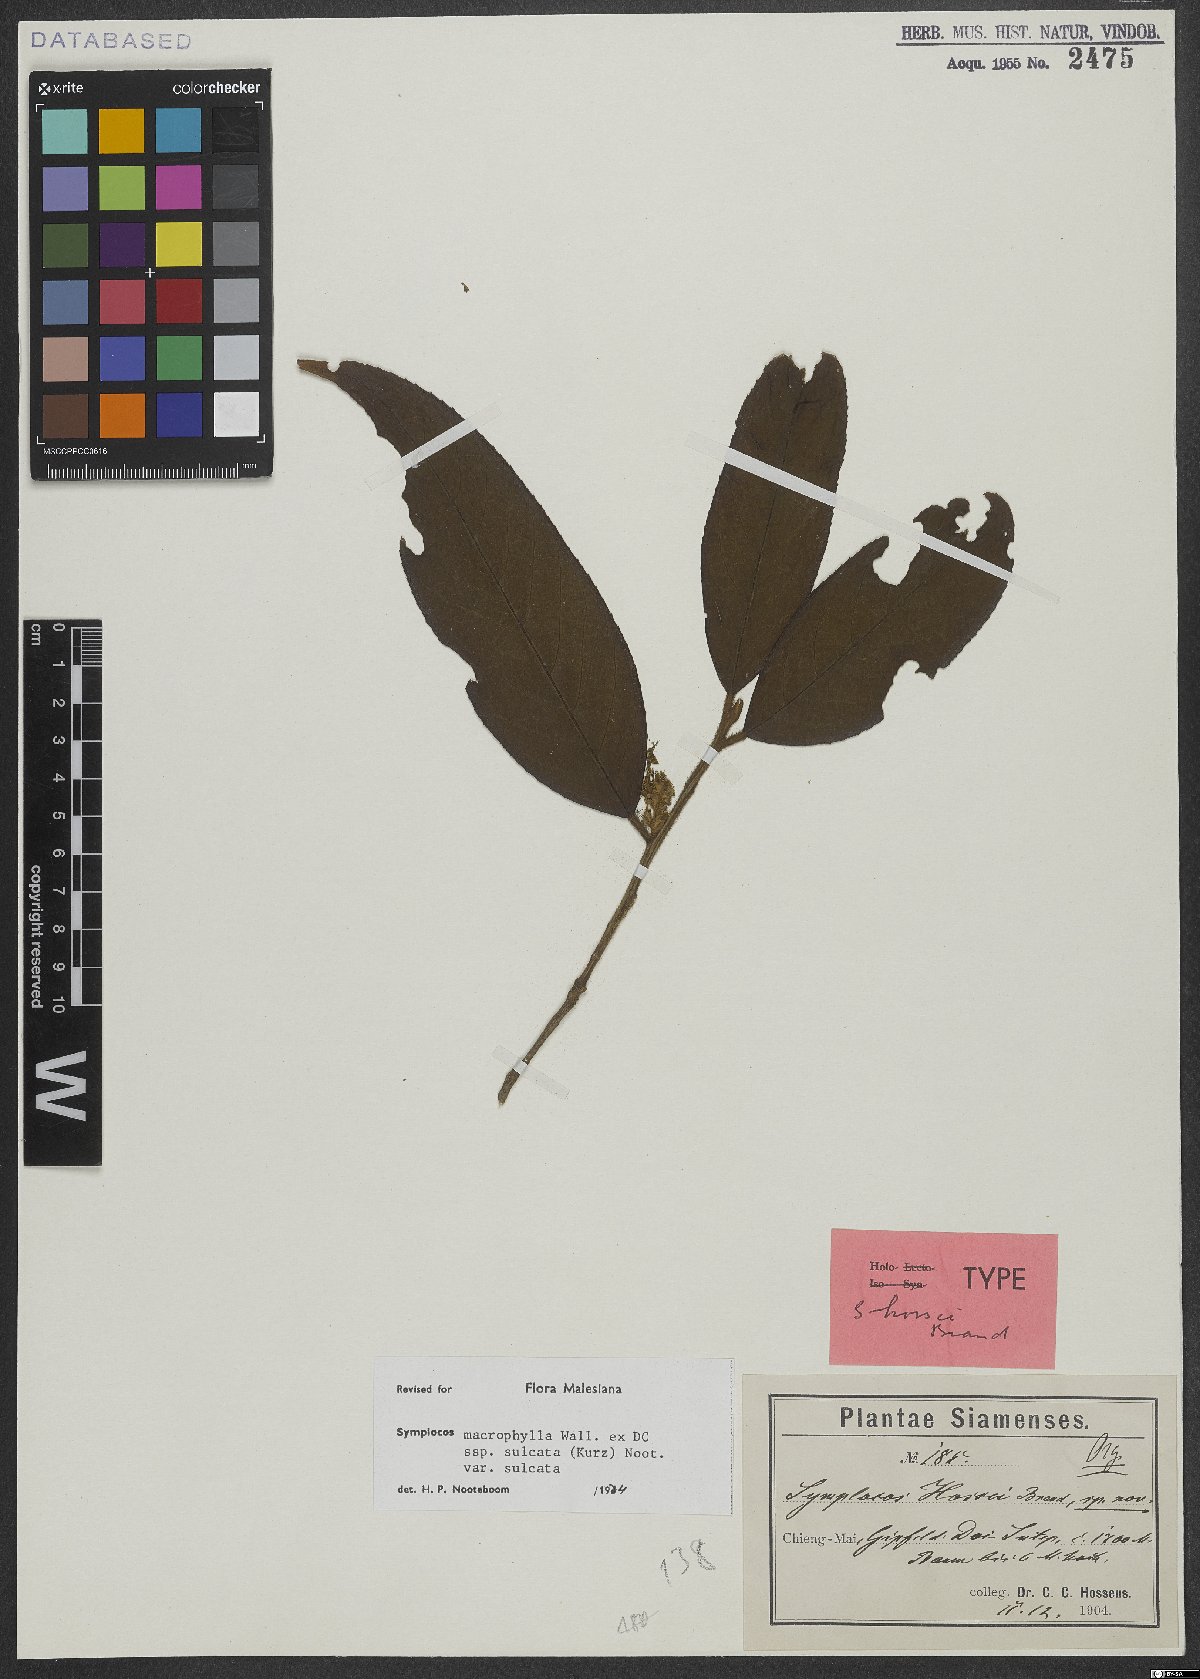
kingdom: Plantae
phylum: Tracheophyta
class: Magnoliopsida
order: Ericales
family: Symplocaceae
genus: Symplocos
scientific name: Symplocos sulcata
